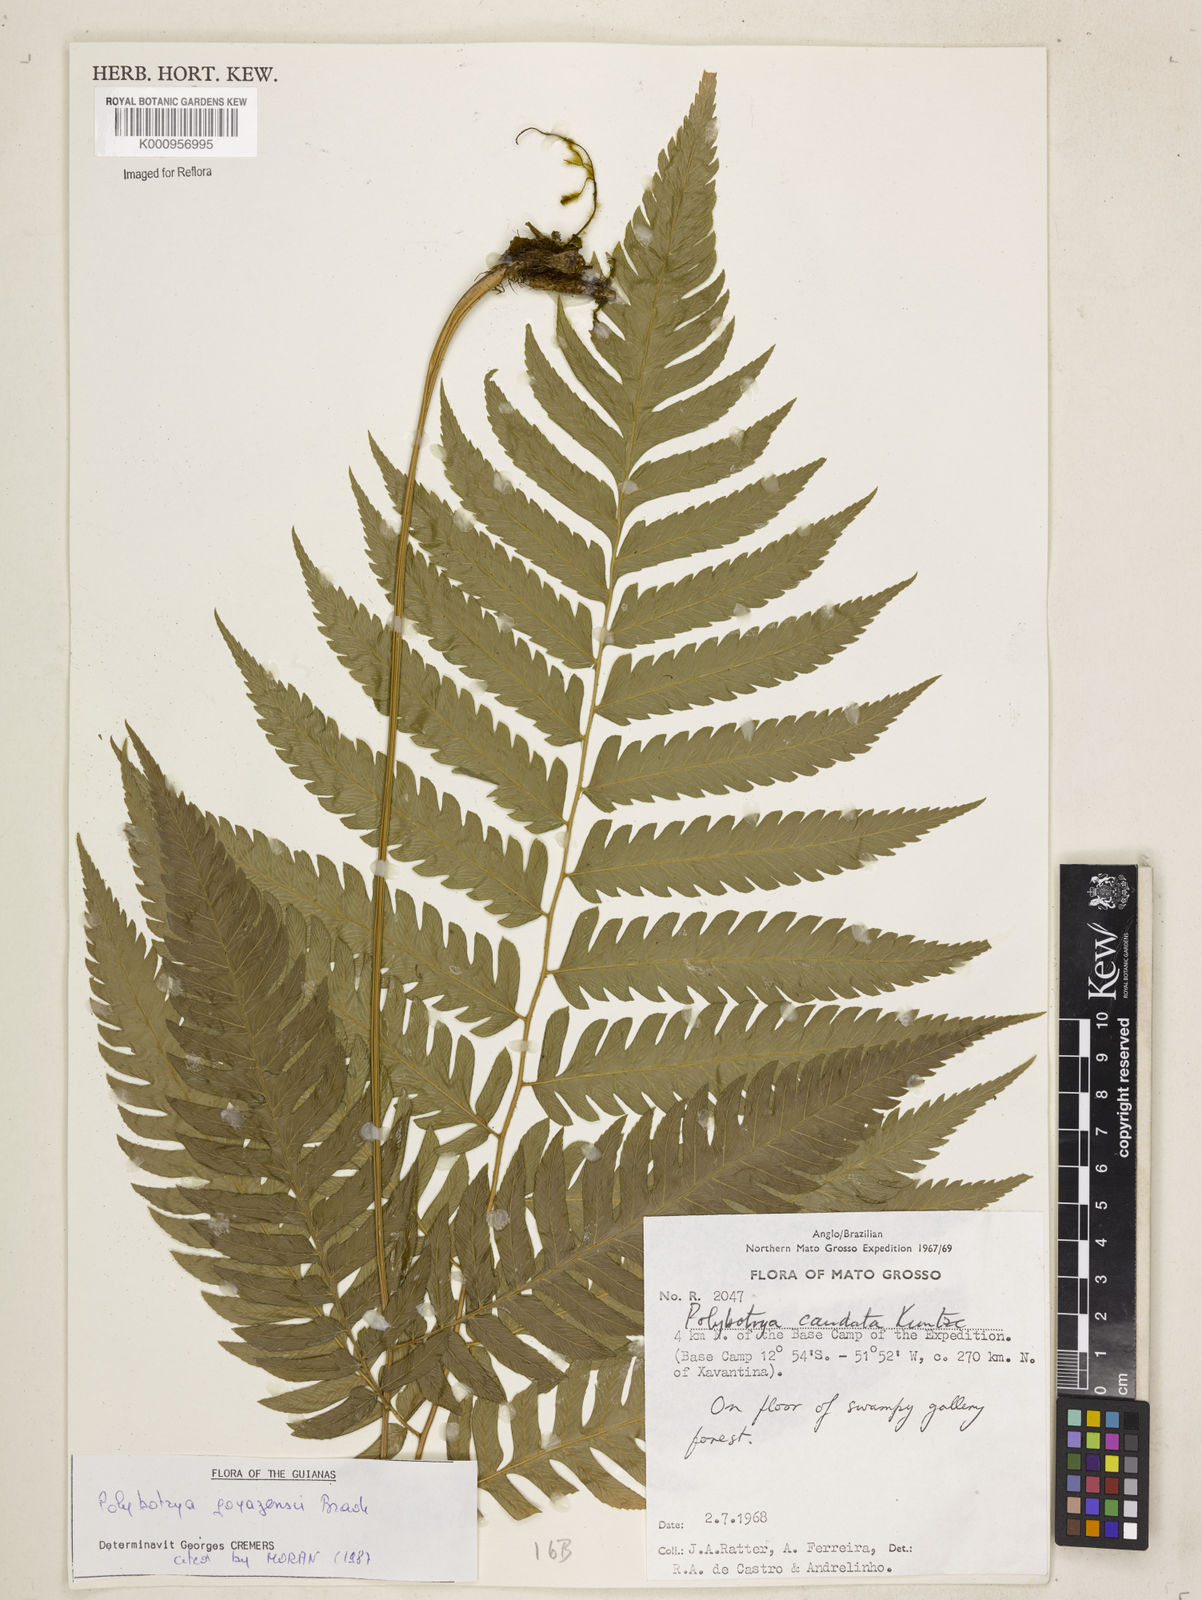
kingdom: Plantae
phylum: Tracheophyta
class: Polypodiopsida
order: Polypodiales
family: Dryopteridaceae
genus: Polybotrya
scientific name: Polybotrya goyazensis
